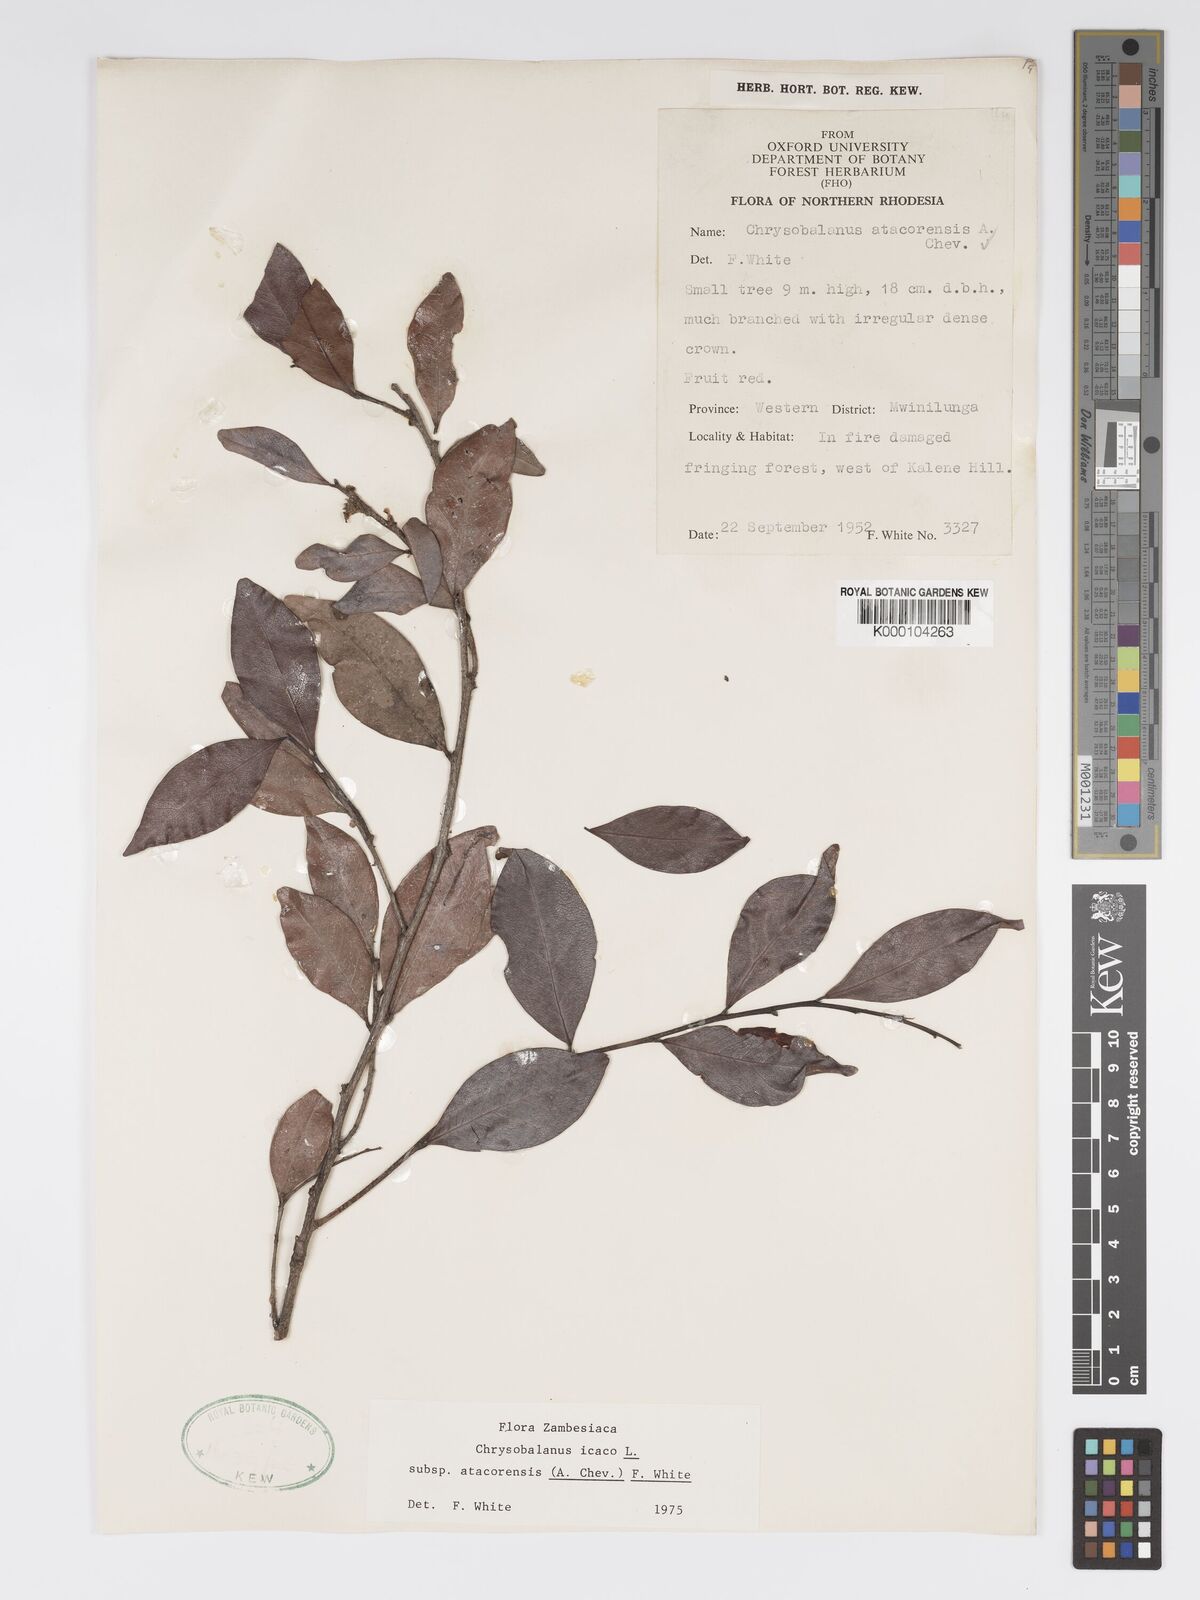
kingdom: Plantae
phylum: Tracheophyta
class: Magnoliopsida
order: Malpighiales
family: Chrysobalanaceae
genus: Chrysobalanus
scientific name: Chrysobalanus icaco
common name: Coco plum
